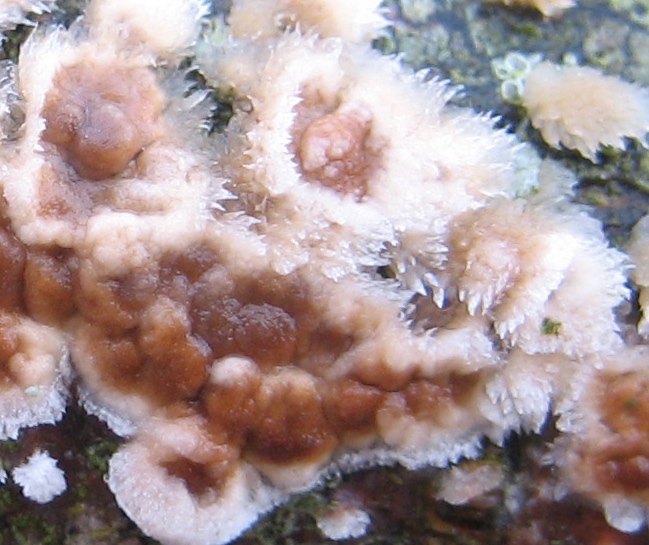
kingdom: Fungi
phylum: Basidiomycota
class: Agaricomycetes
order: Corticiales
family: Corticiaceae
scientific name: Corticiaceae
